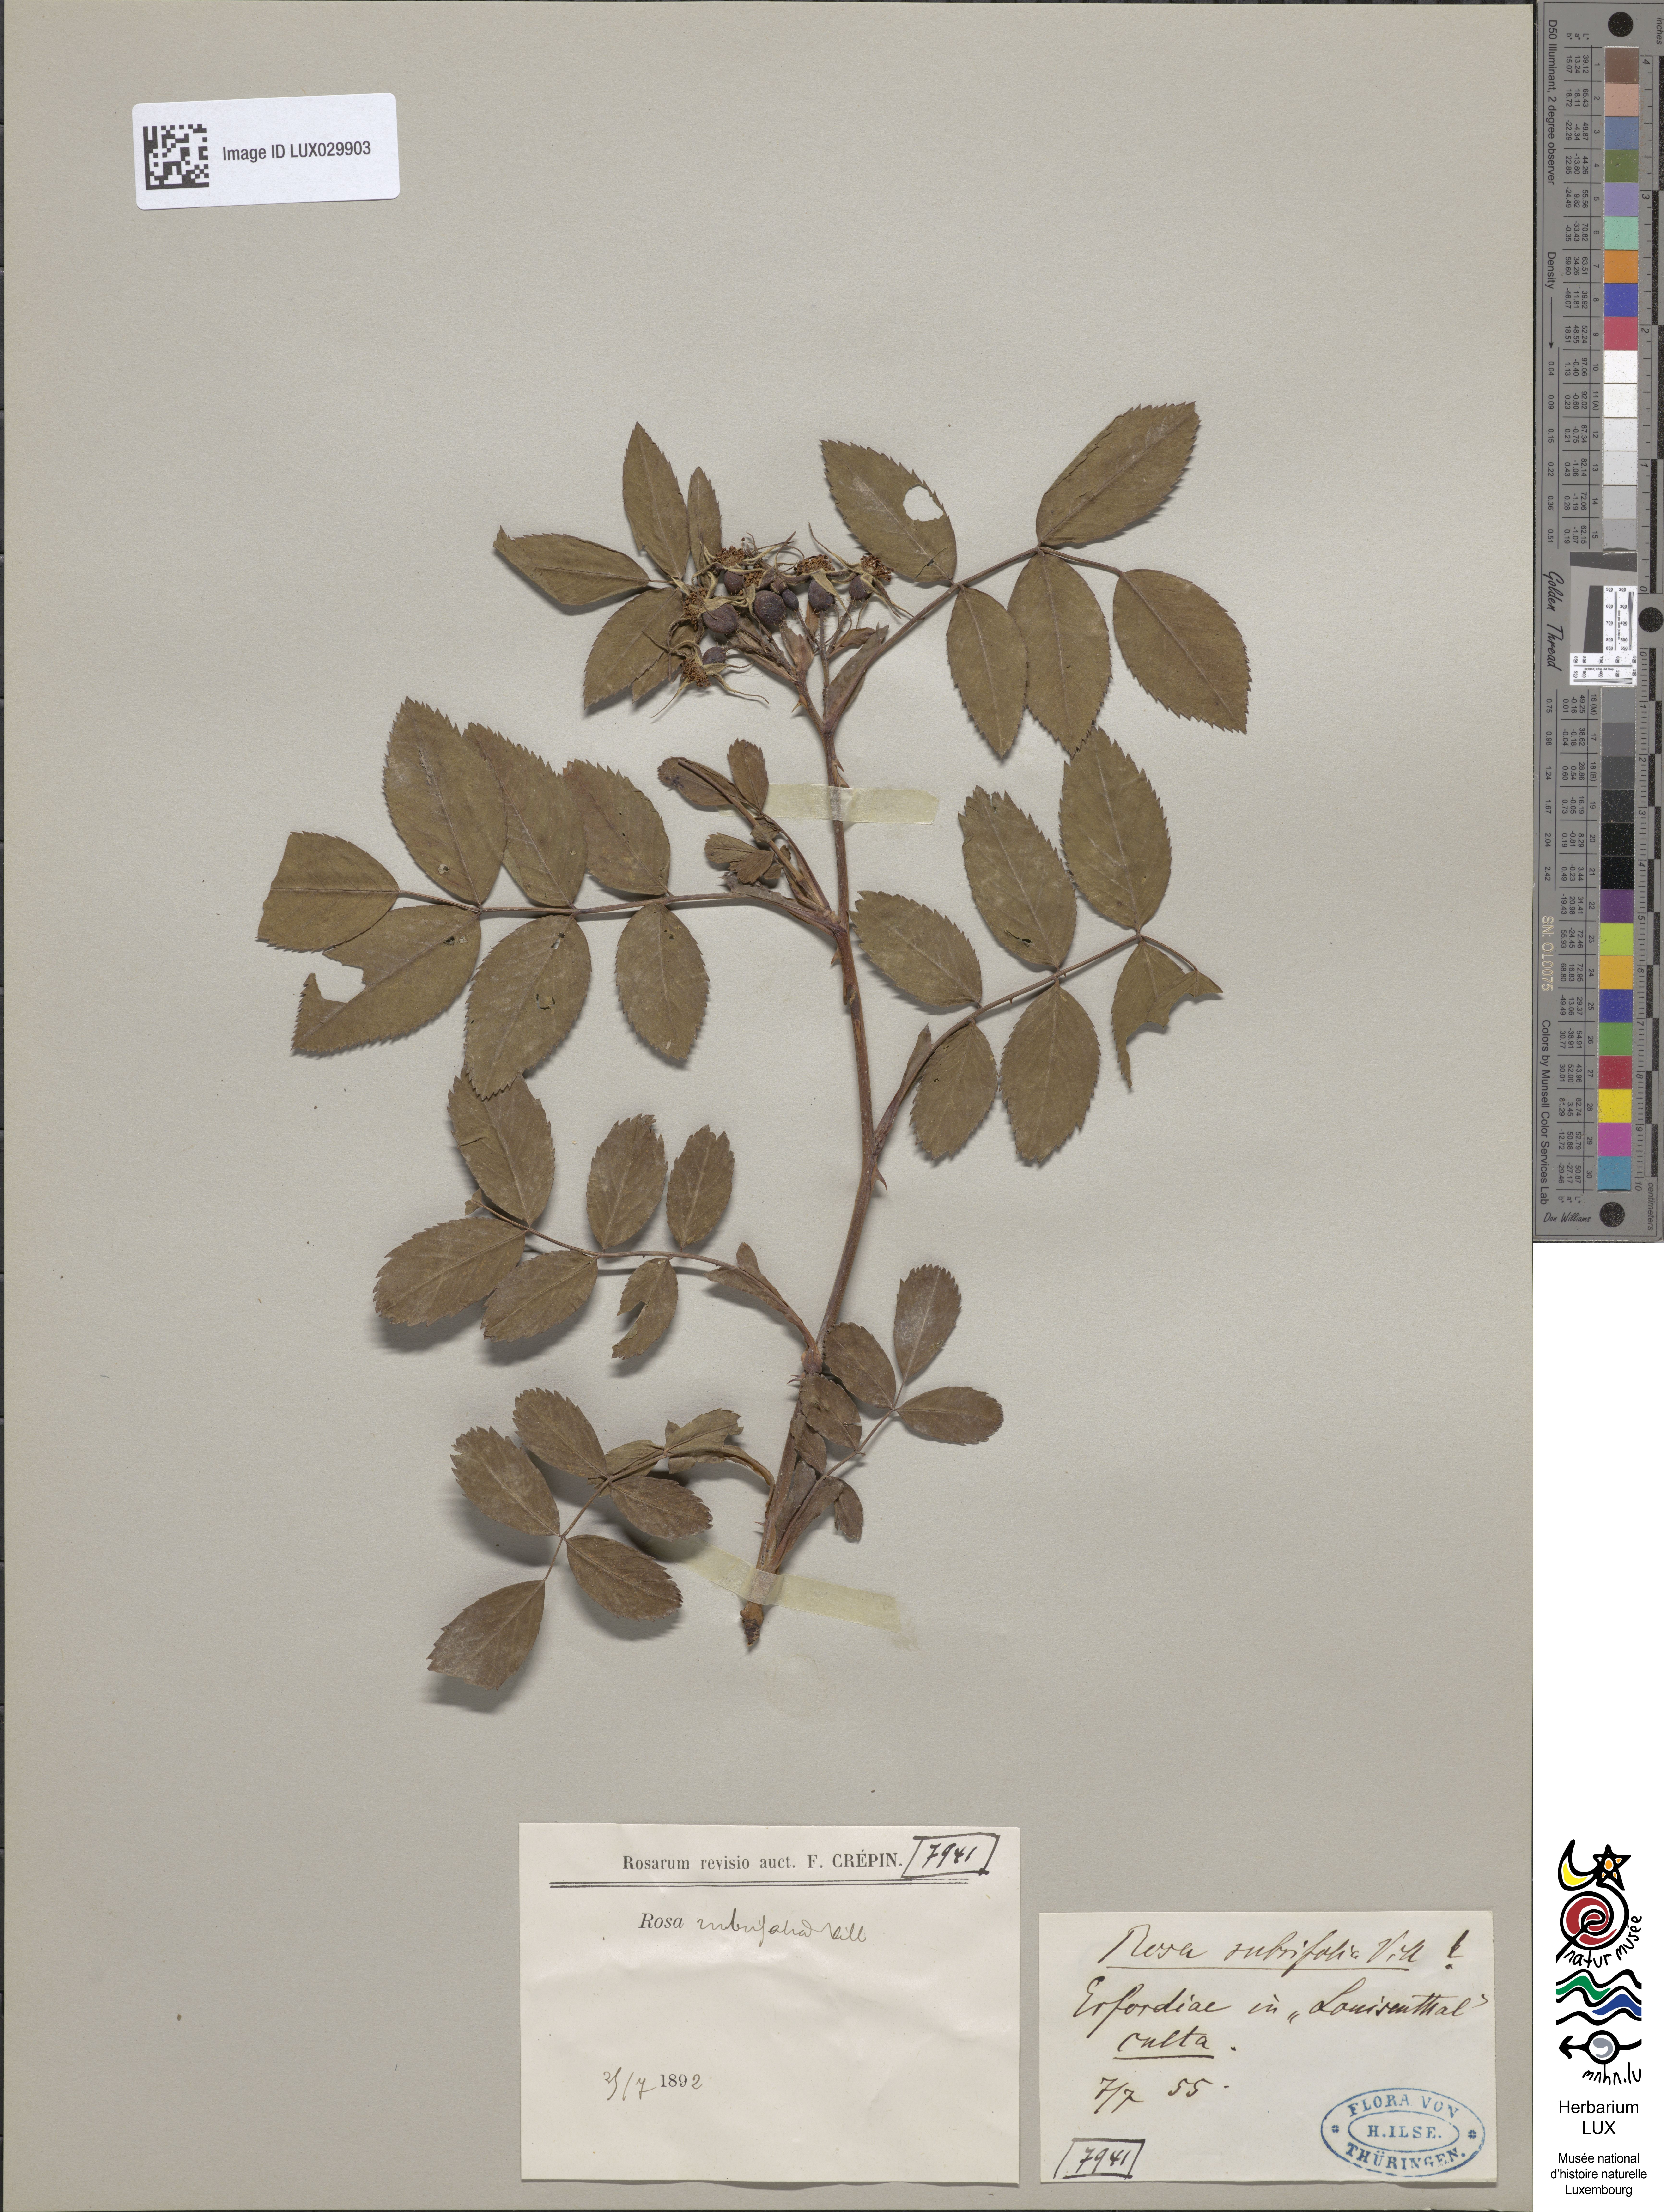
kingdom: Plantae
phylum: Tracheophyta
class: Magnoliopsida
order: Rosales
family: Rosaceae
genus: Rosa
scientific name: Rosa glauca
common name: Redleaf rose
